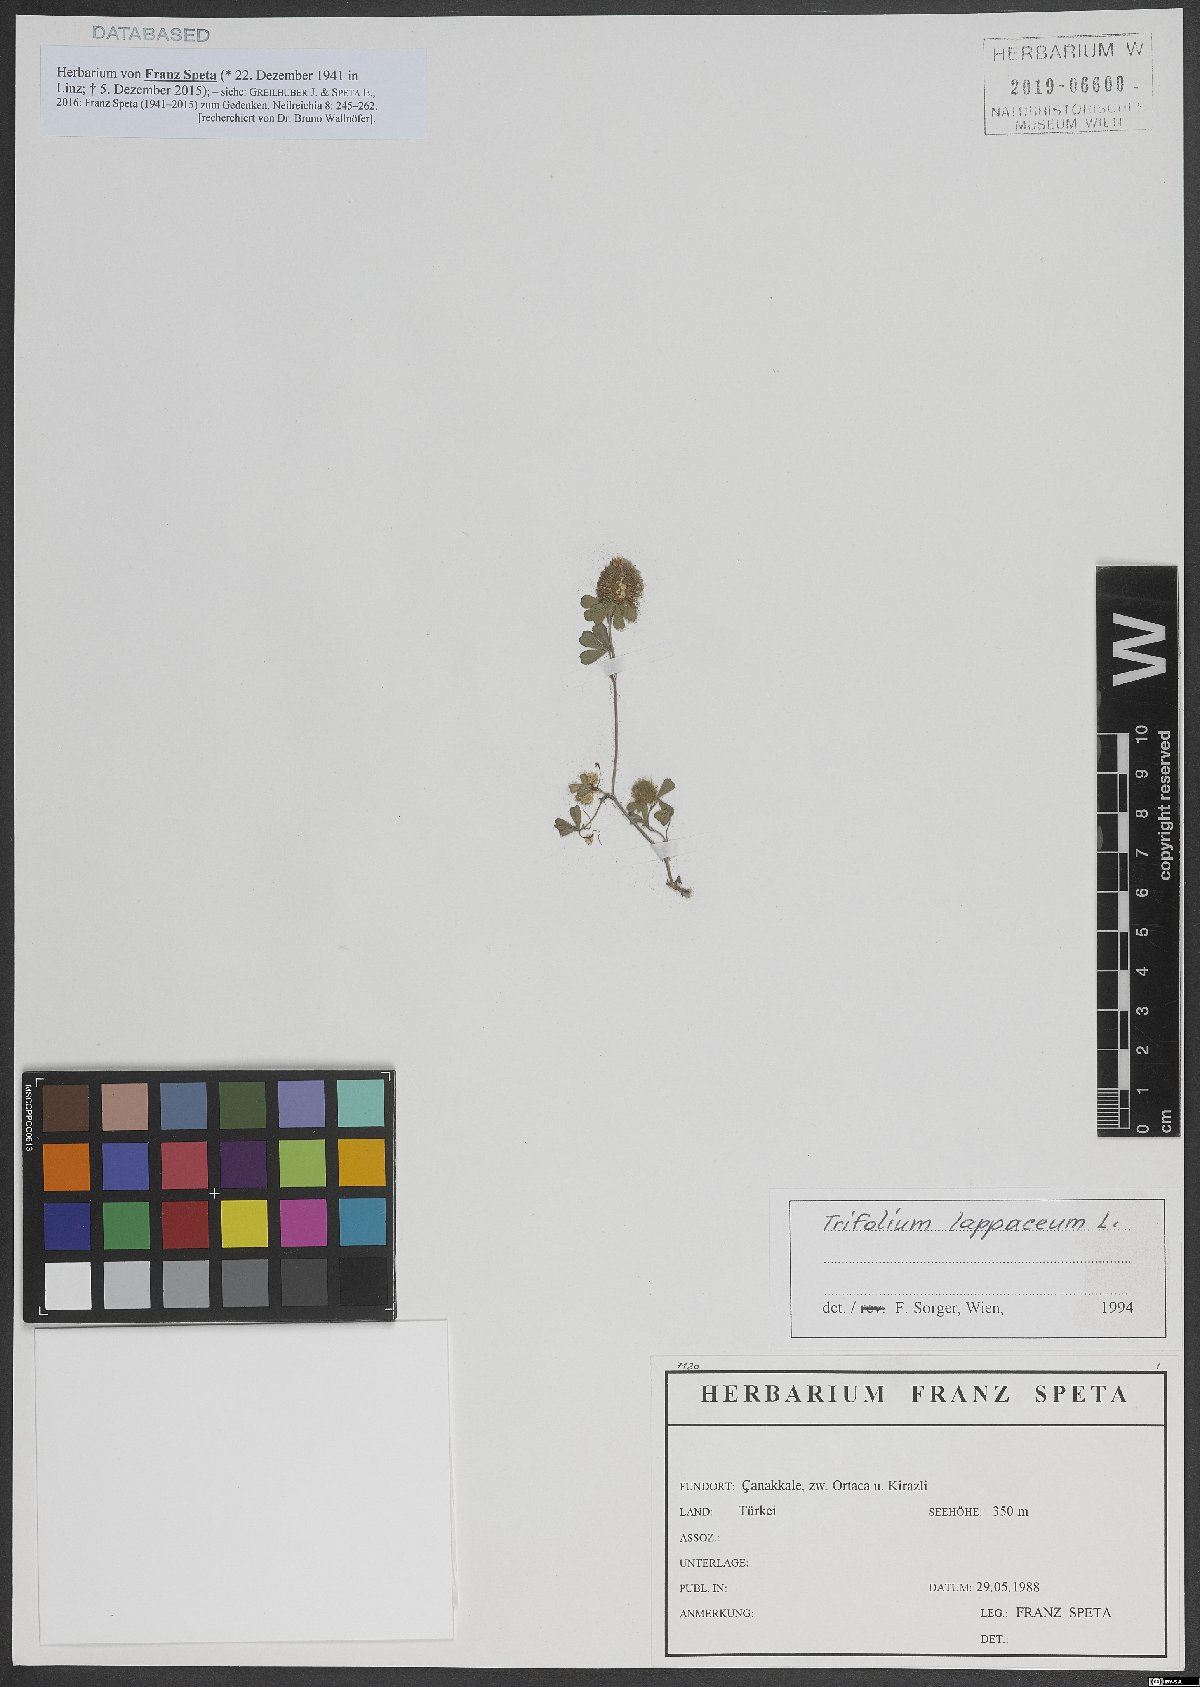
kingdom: Plantae
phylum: Tracheophyta
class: Magnoliopsida
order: Fabales
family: Fabaceae
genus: Trifolium
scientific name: Trifolium lappaceum
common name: Bur clover
